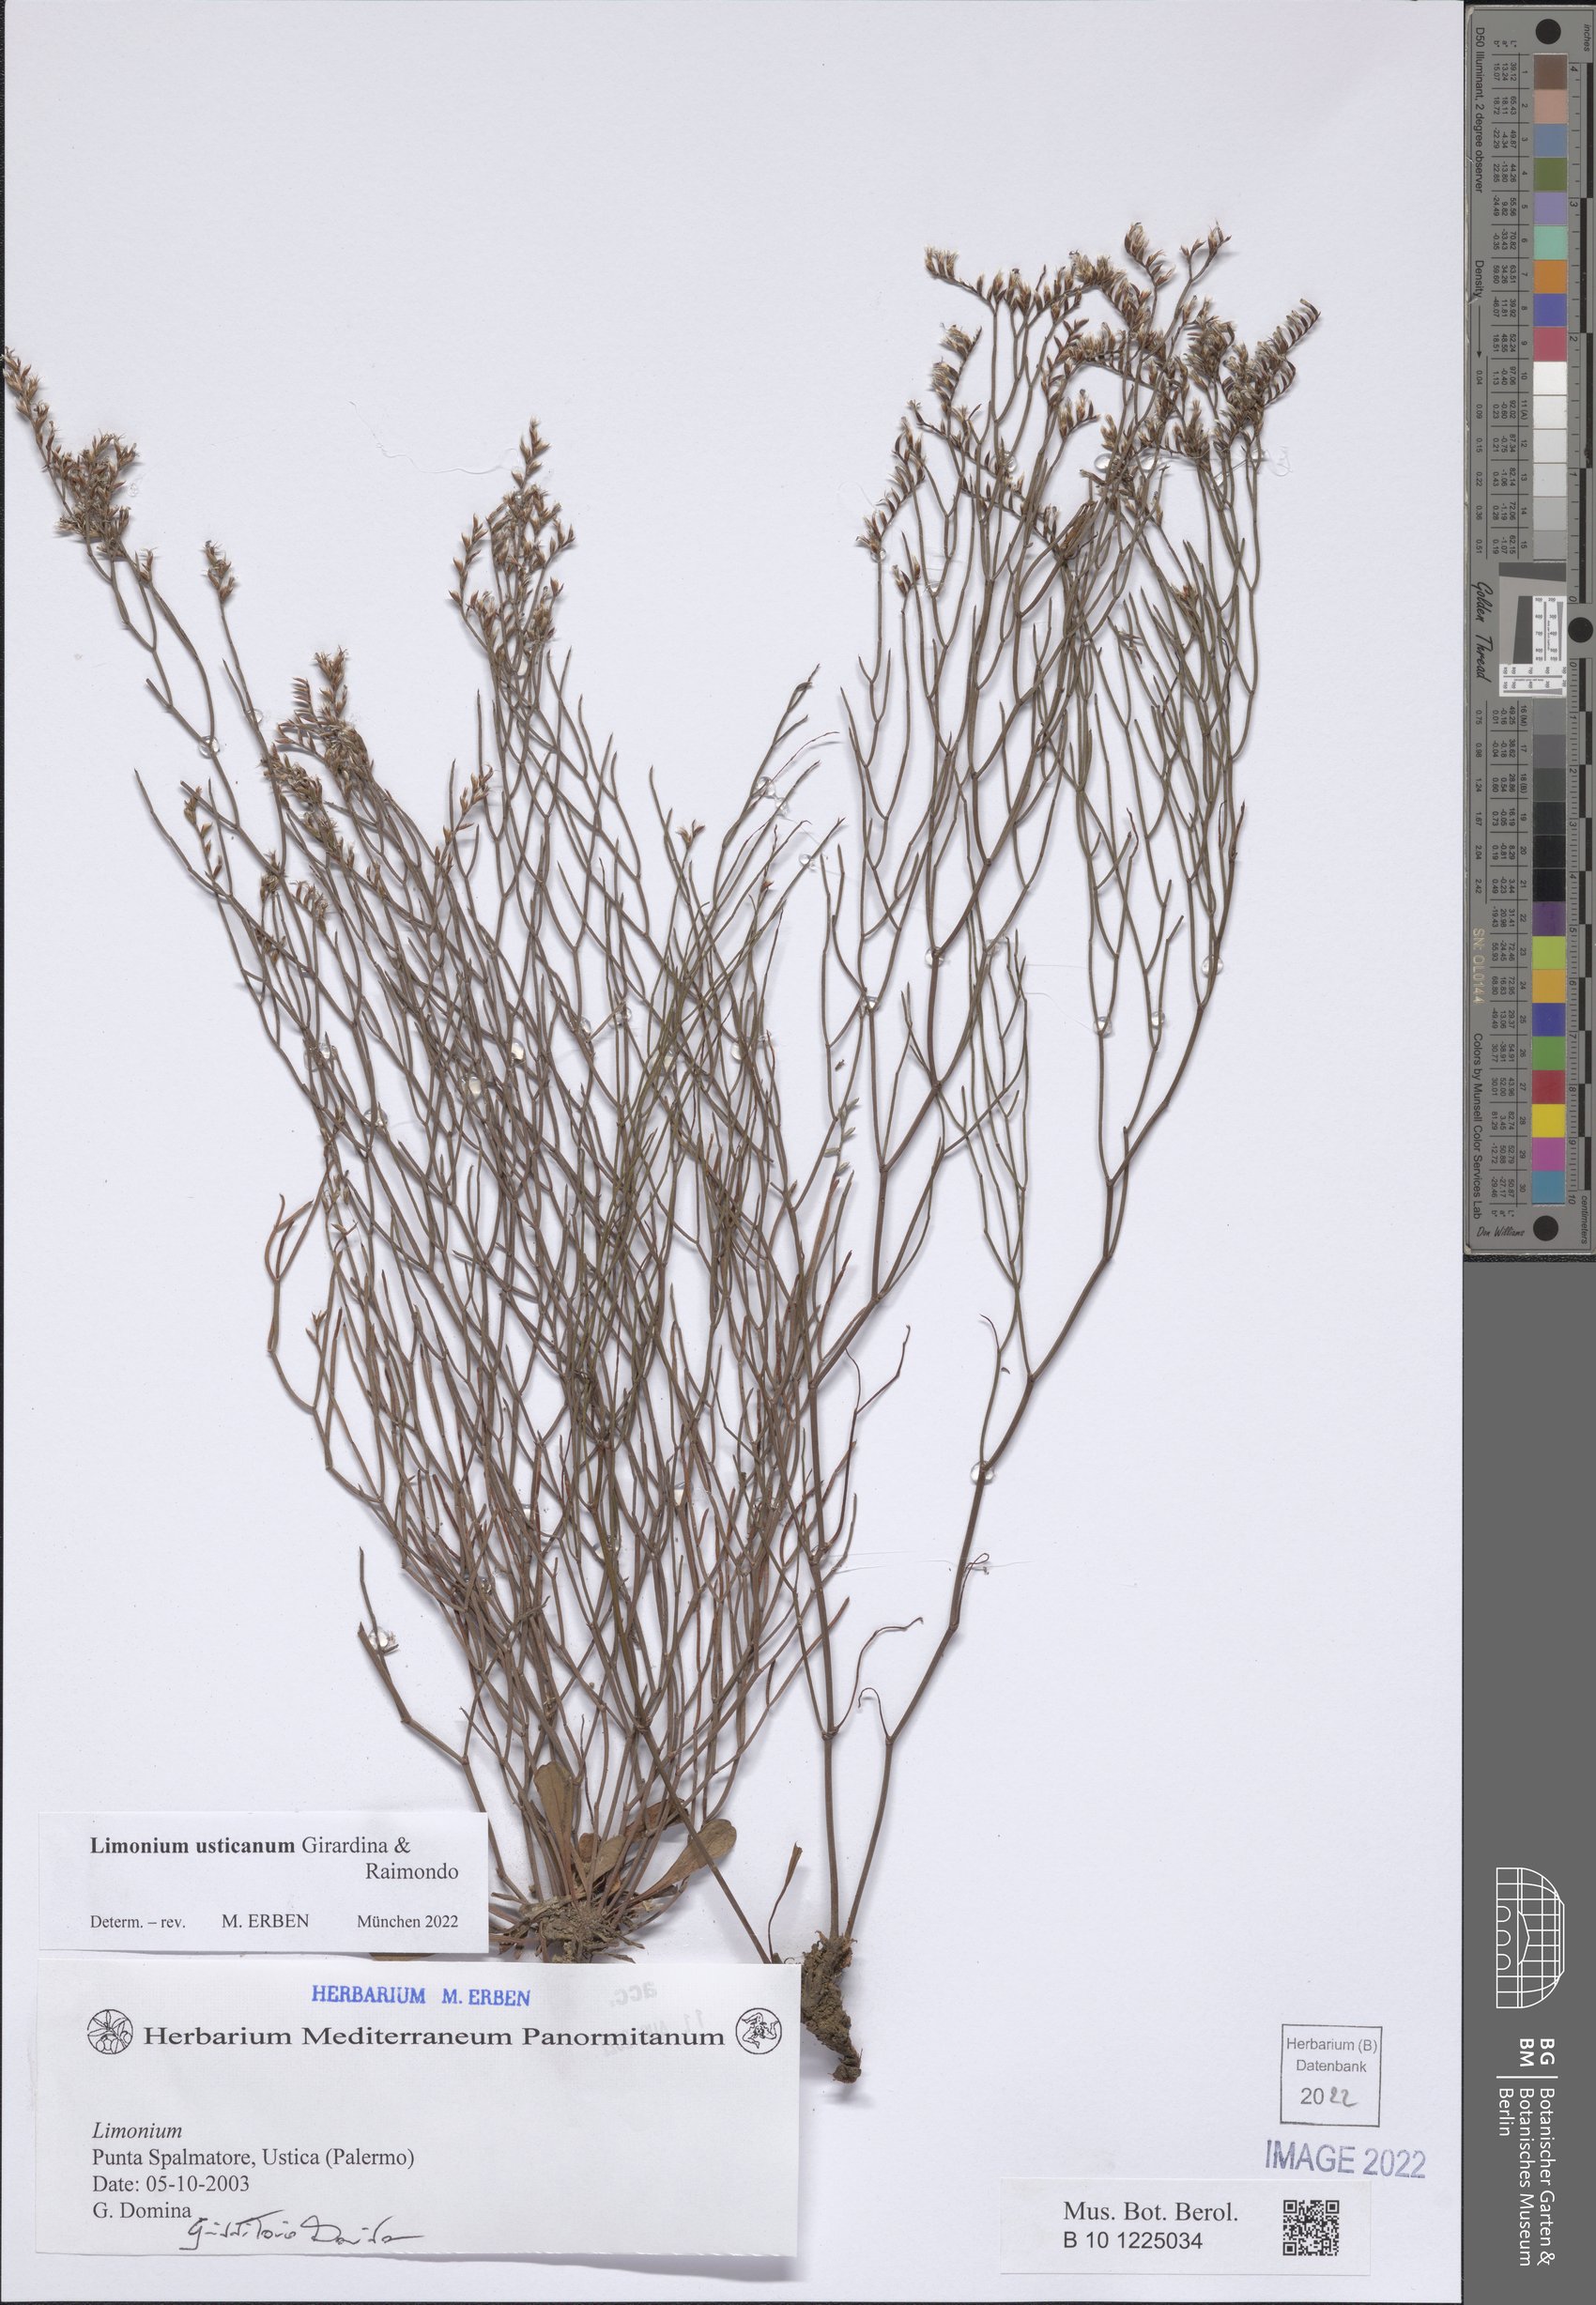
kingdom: Plantae
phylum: Tracheophyta
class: Magnoliopsida
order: Caryophyllales
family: Plumbaginaceae
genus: Limonium
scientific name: Limonium usticanum
